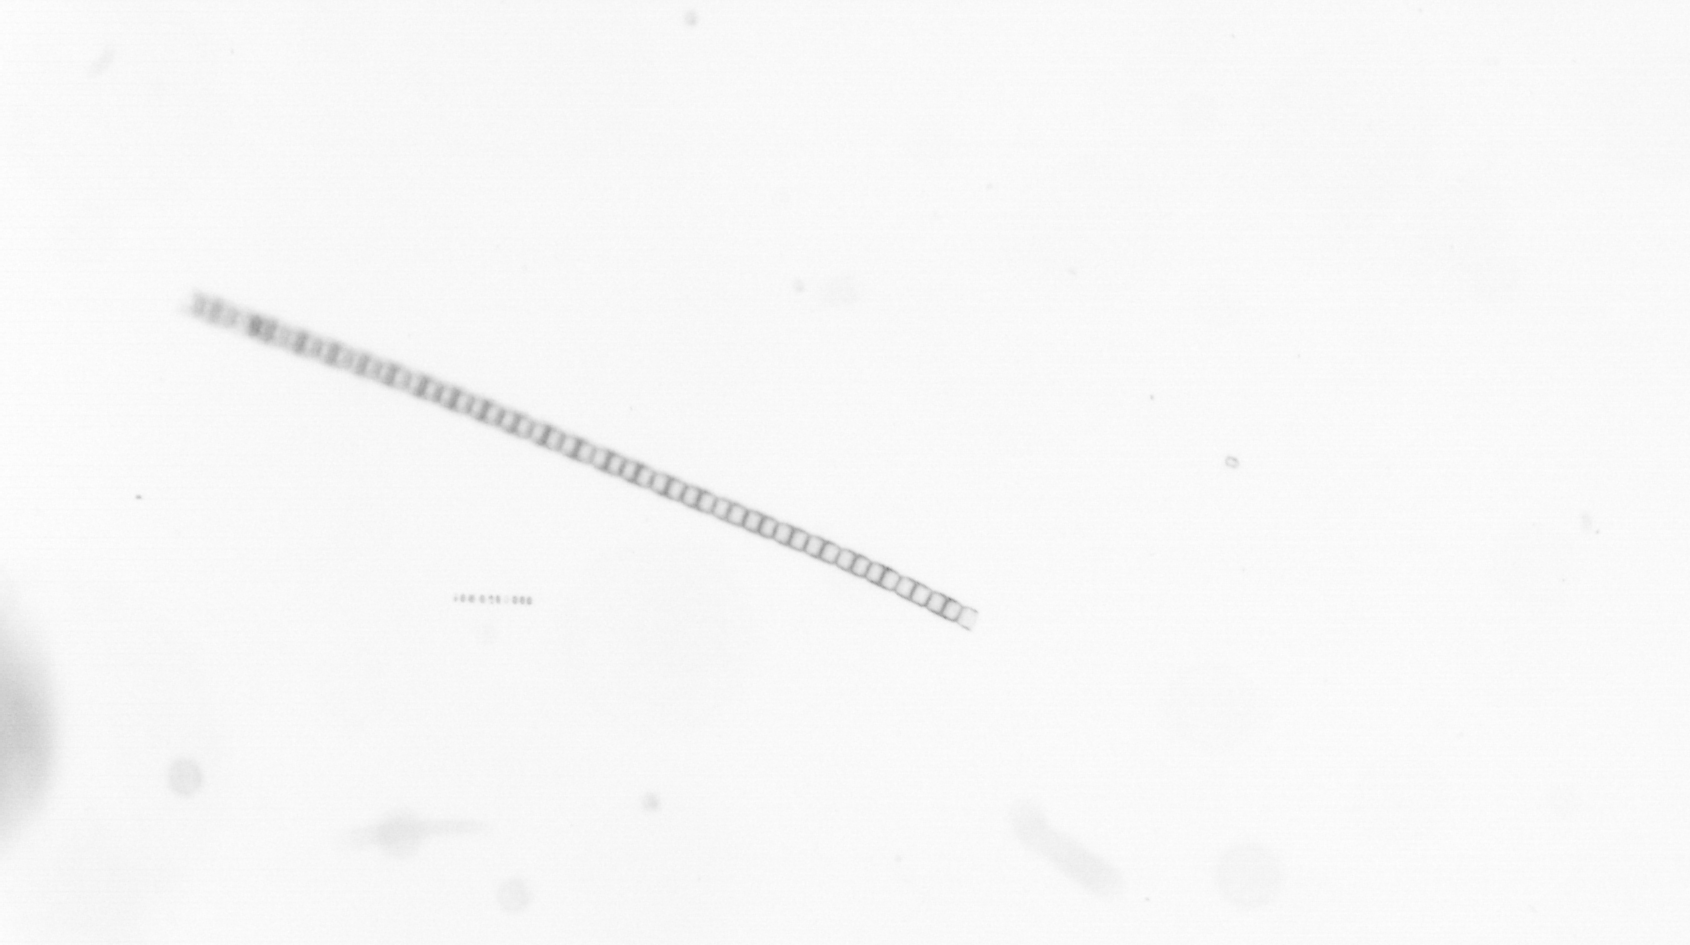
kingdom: Chromista
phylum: Ochrophyta
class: Bacillariophyceae
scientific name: Bacillariophyceae
